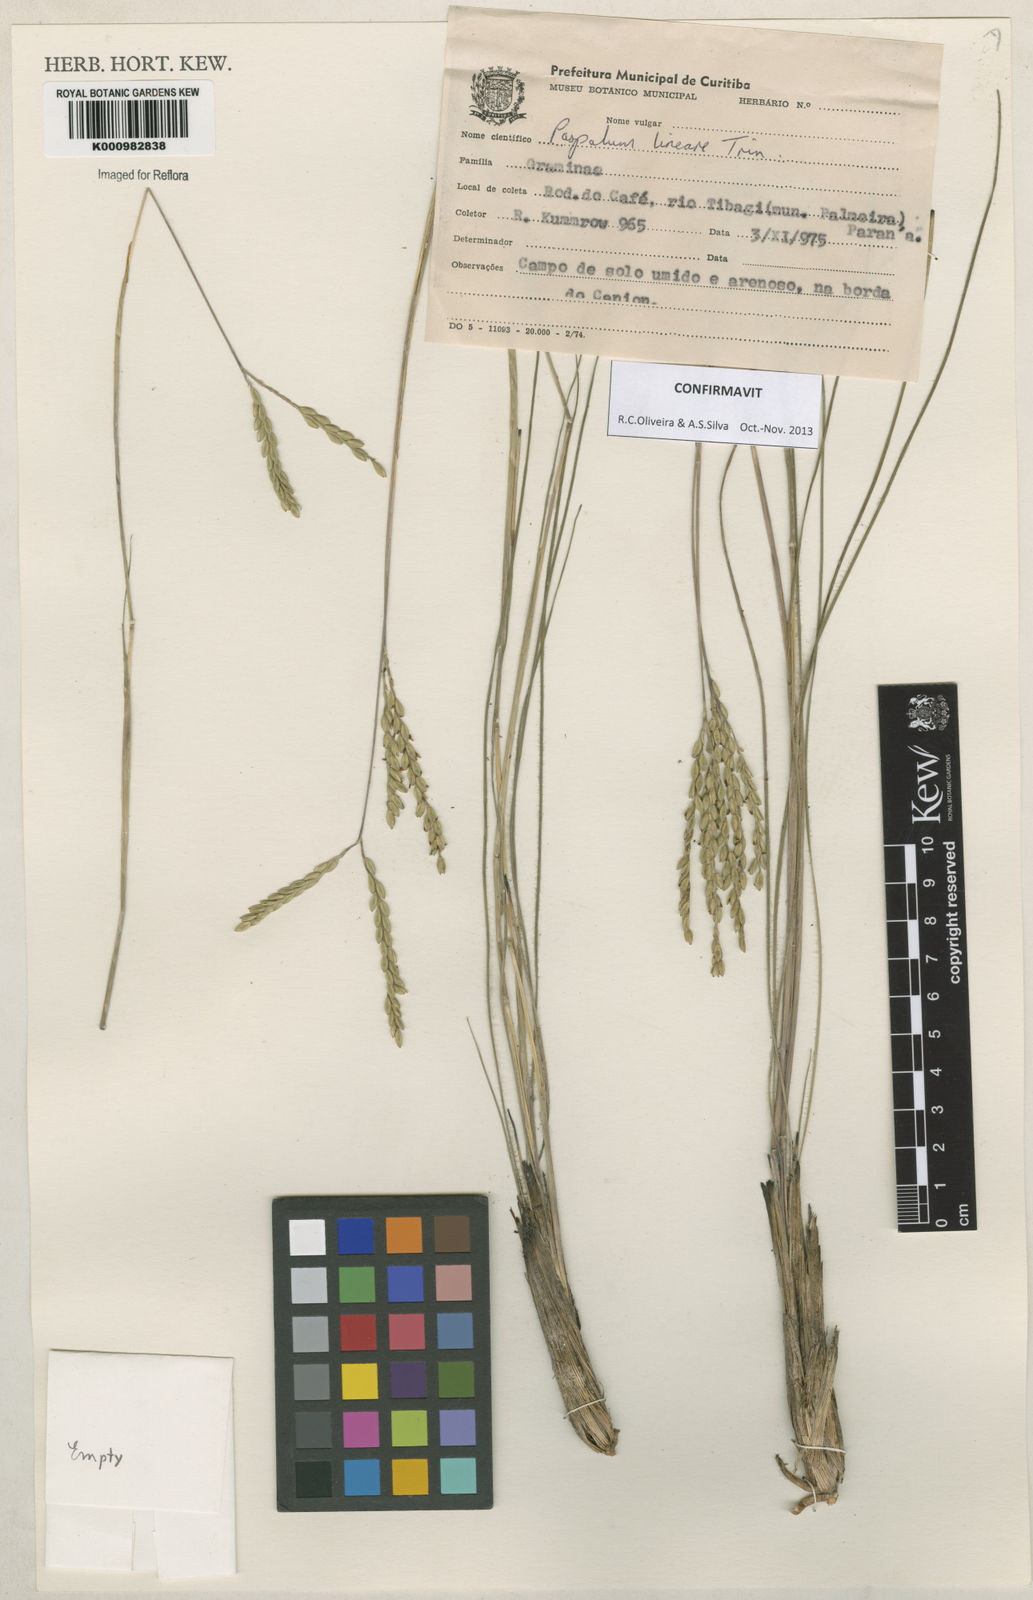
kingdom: Plantae
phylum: Tracheophyta
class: Liliopsida
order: Poales
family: Poaceae
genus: Paspalum
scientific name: Paspalum lineare
